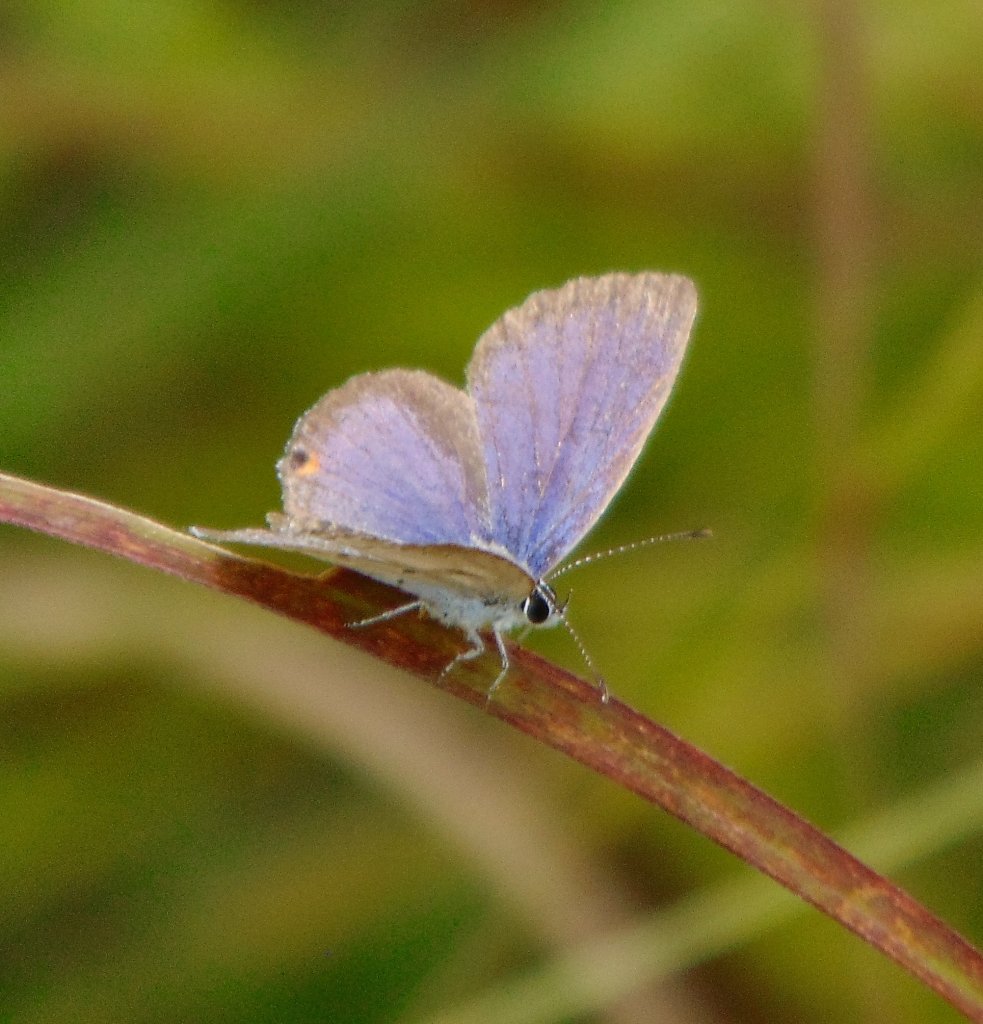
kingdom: Animalia
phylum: Arthropoda
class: Insecta
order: Lepidoptera
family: Lycaenidae
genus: Elkalyce
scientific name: Elkalyce comyntas
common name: Eastern Tailed-Blue
